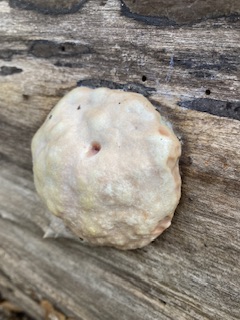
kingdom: Protozoa
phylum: Mycetozoa
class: Myxomycetes
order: Cribrariales
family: Tubiferaceae
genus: Reticularia
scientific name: Reticularia lycoperdon
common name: skinnende støvpude
